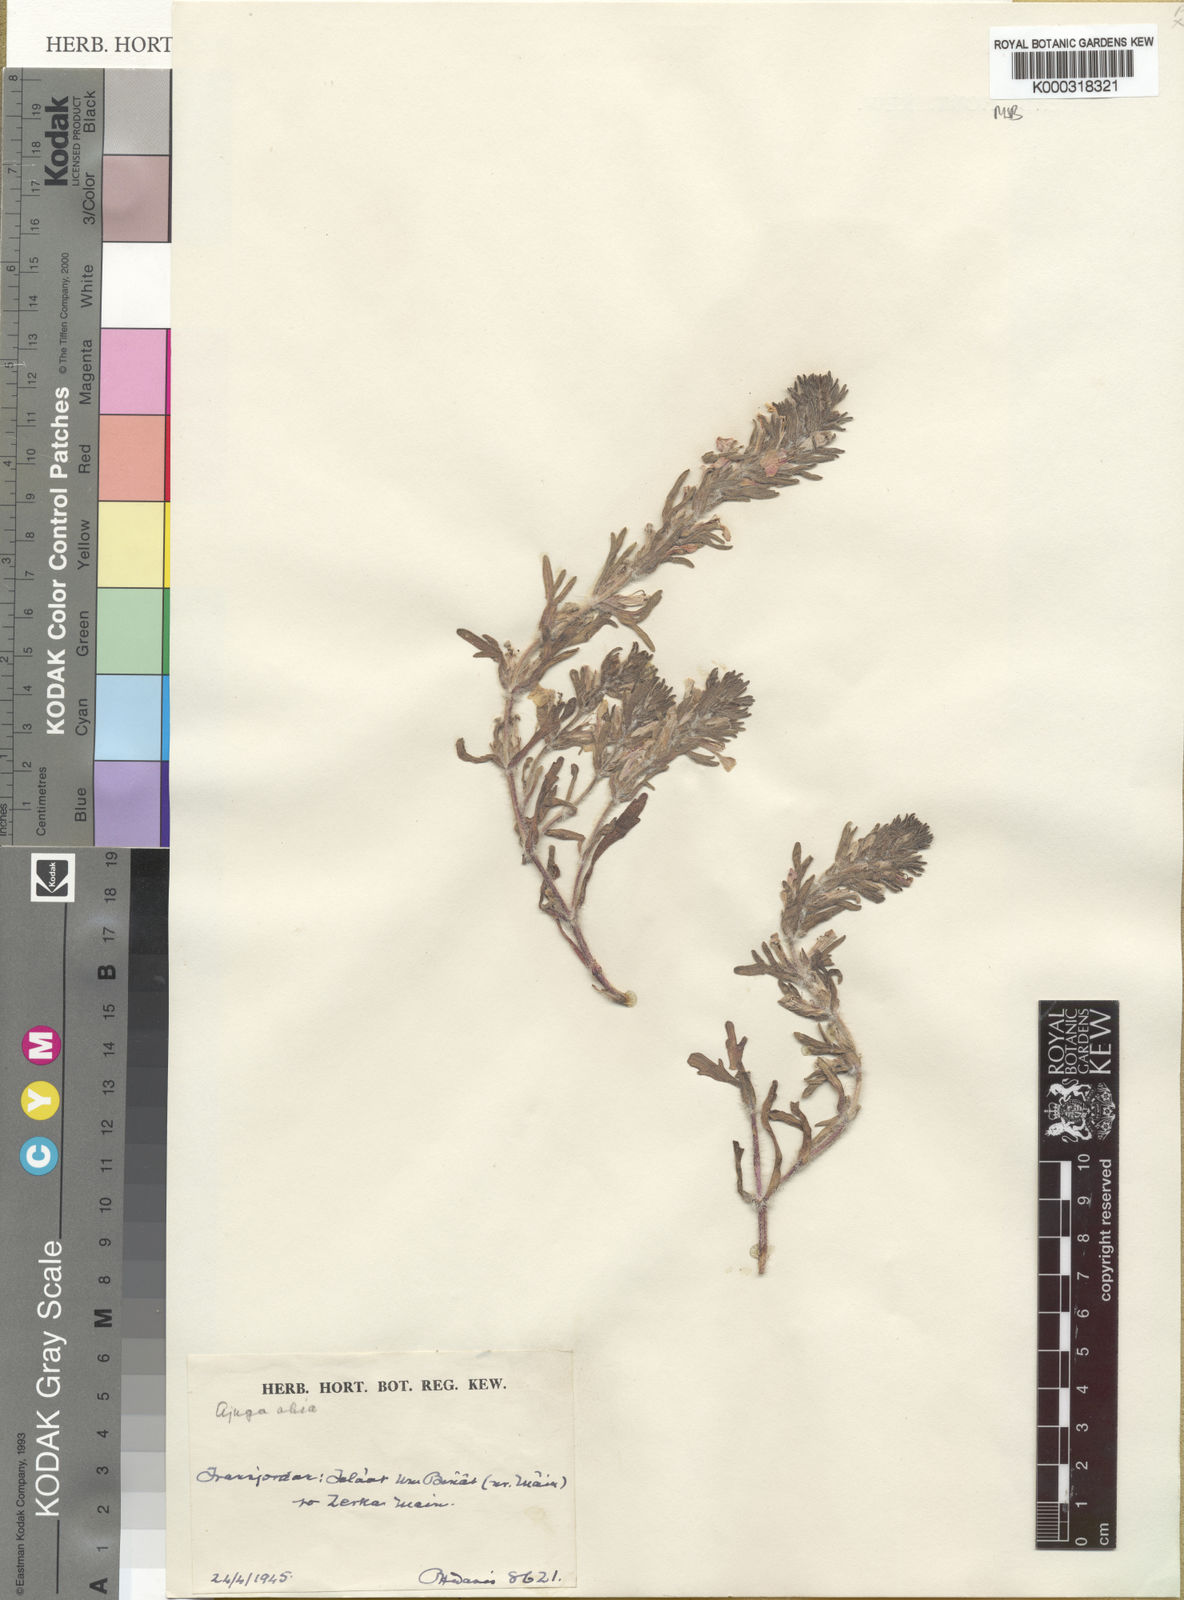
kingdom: Plantae
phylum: Tracheophyta
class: Magnoliopsida
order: Lamiales
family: Lamiaceae
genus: Ajuga
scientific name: Ajuga chamaepitys
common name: Ground-pine
